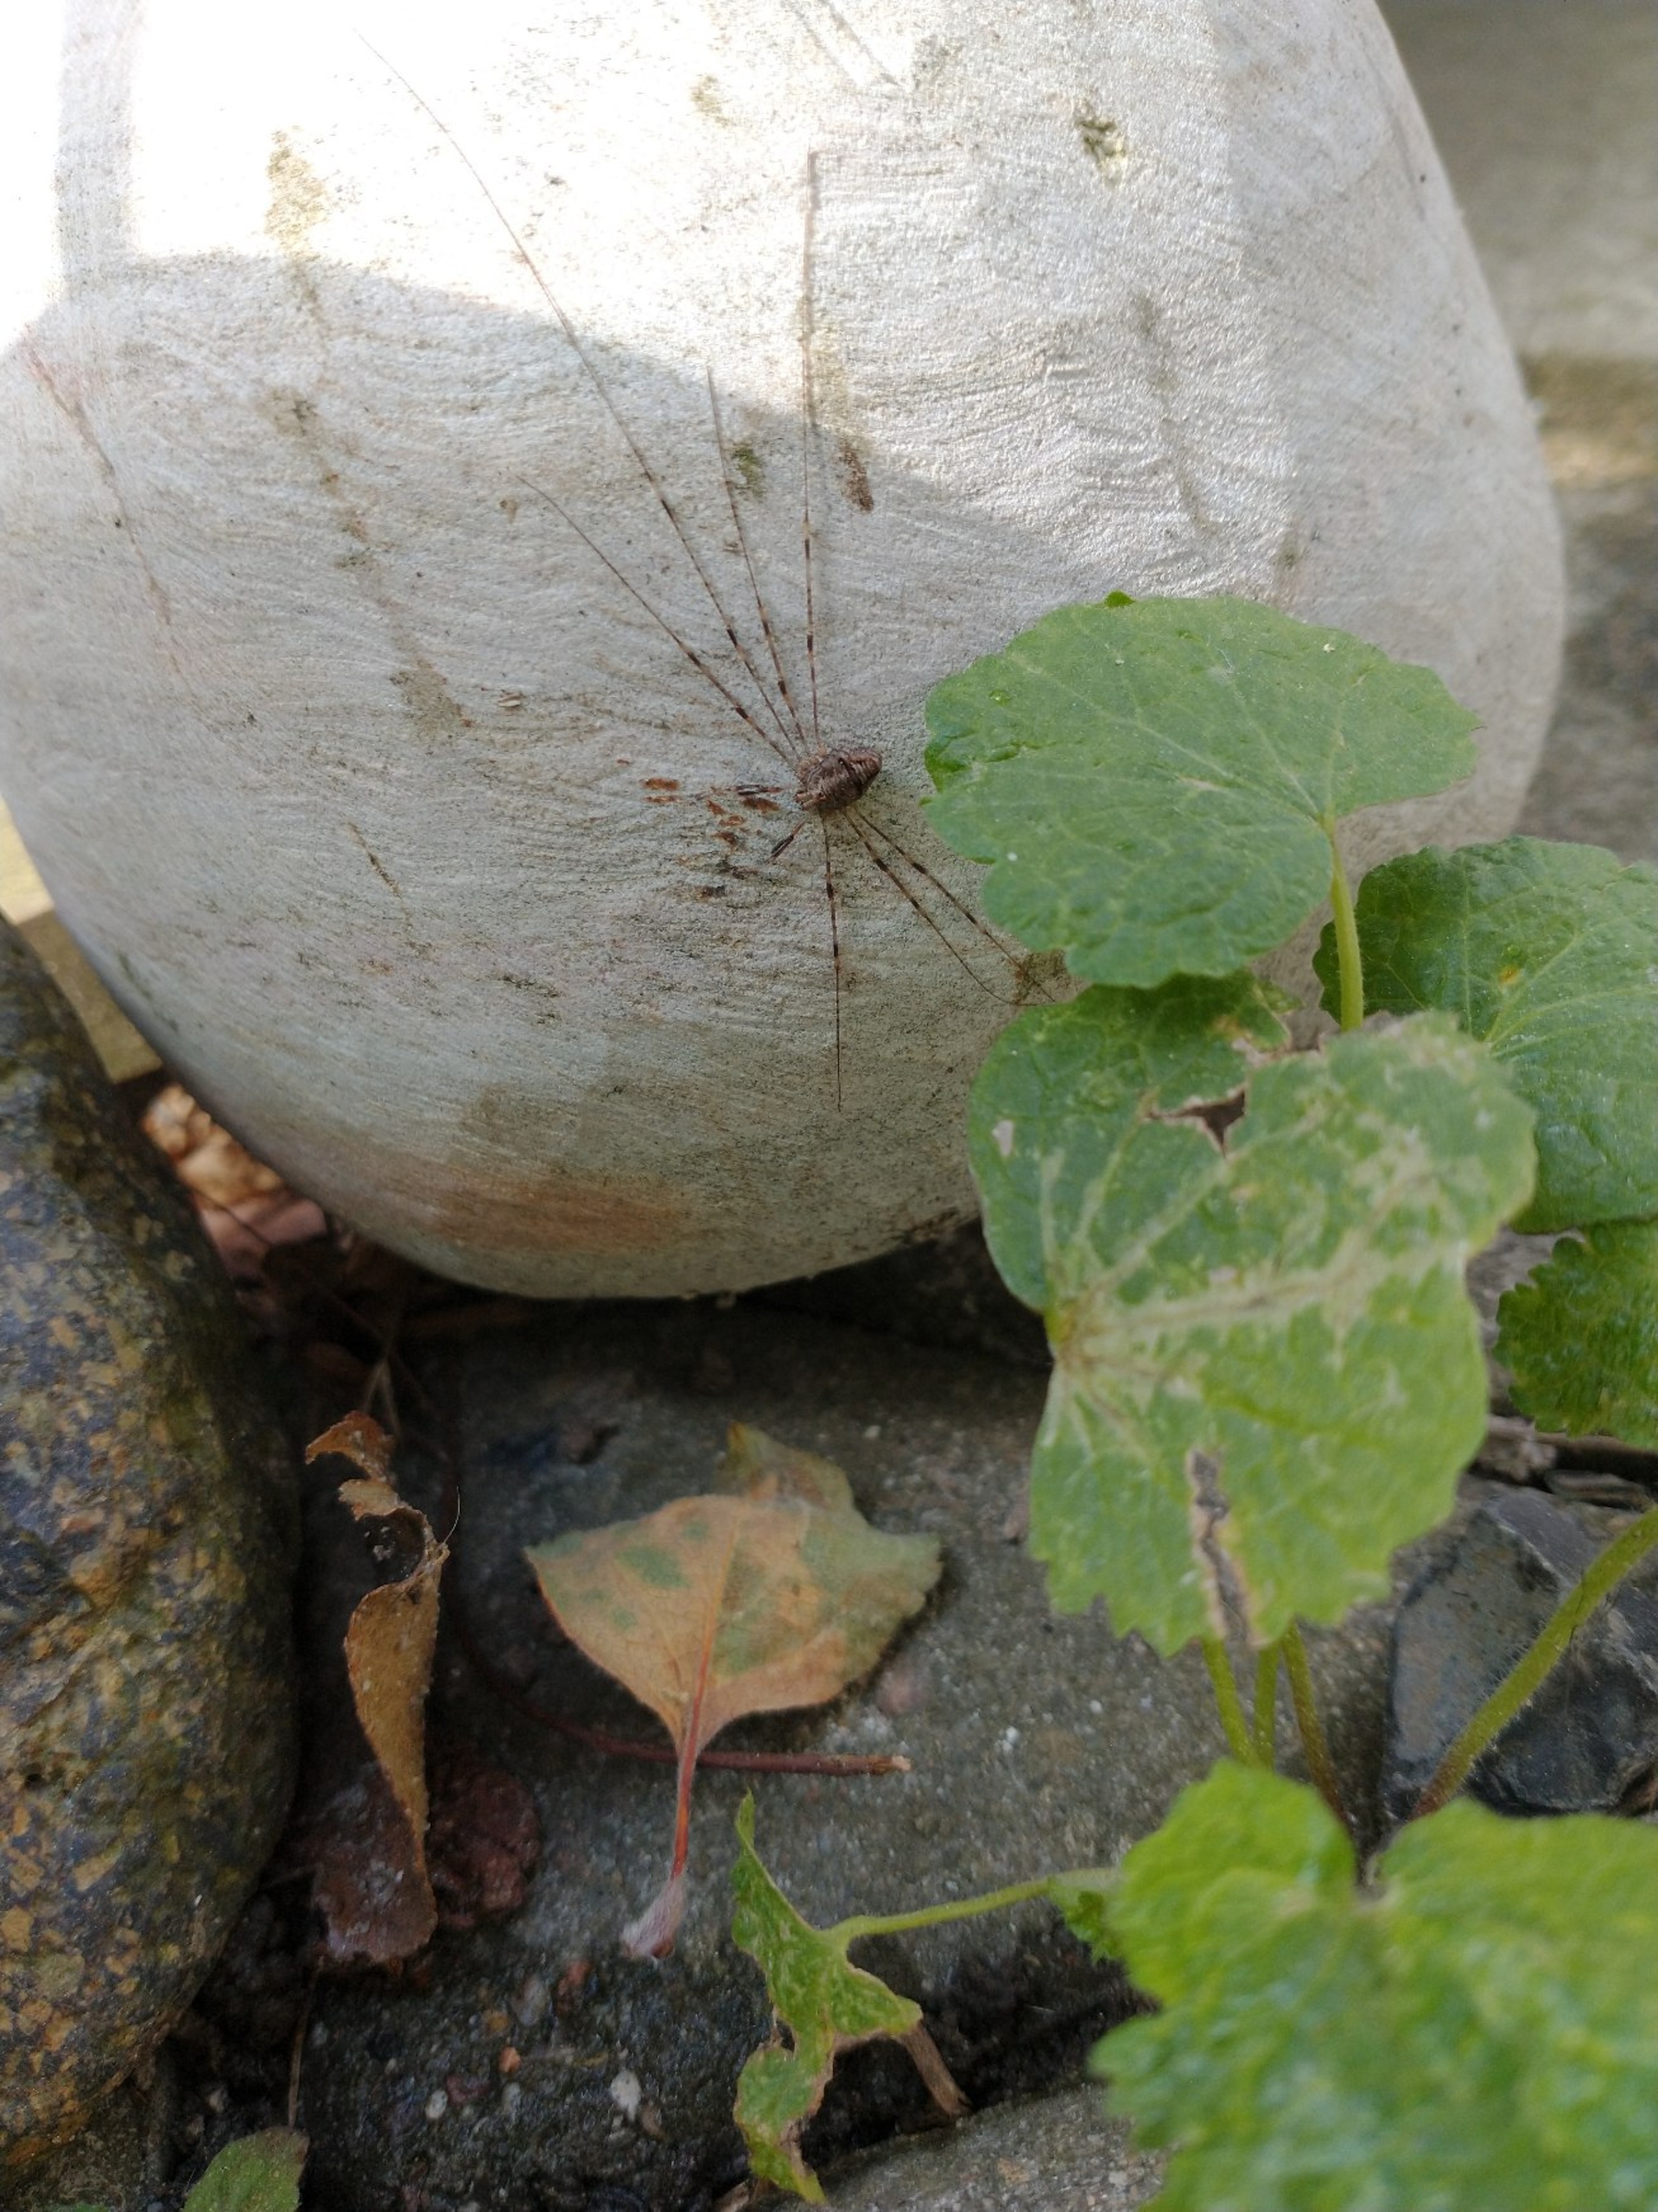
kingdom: Animalia
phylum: Arthropoda
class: Arachnida
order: Opiliones
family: Phalangiidae
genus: Dicranopalpus
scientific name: Dicranopalpus ramosus
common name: Gaffelmejer
